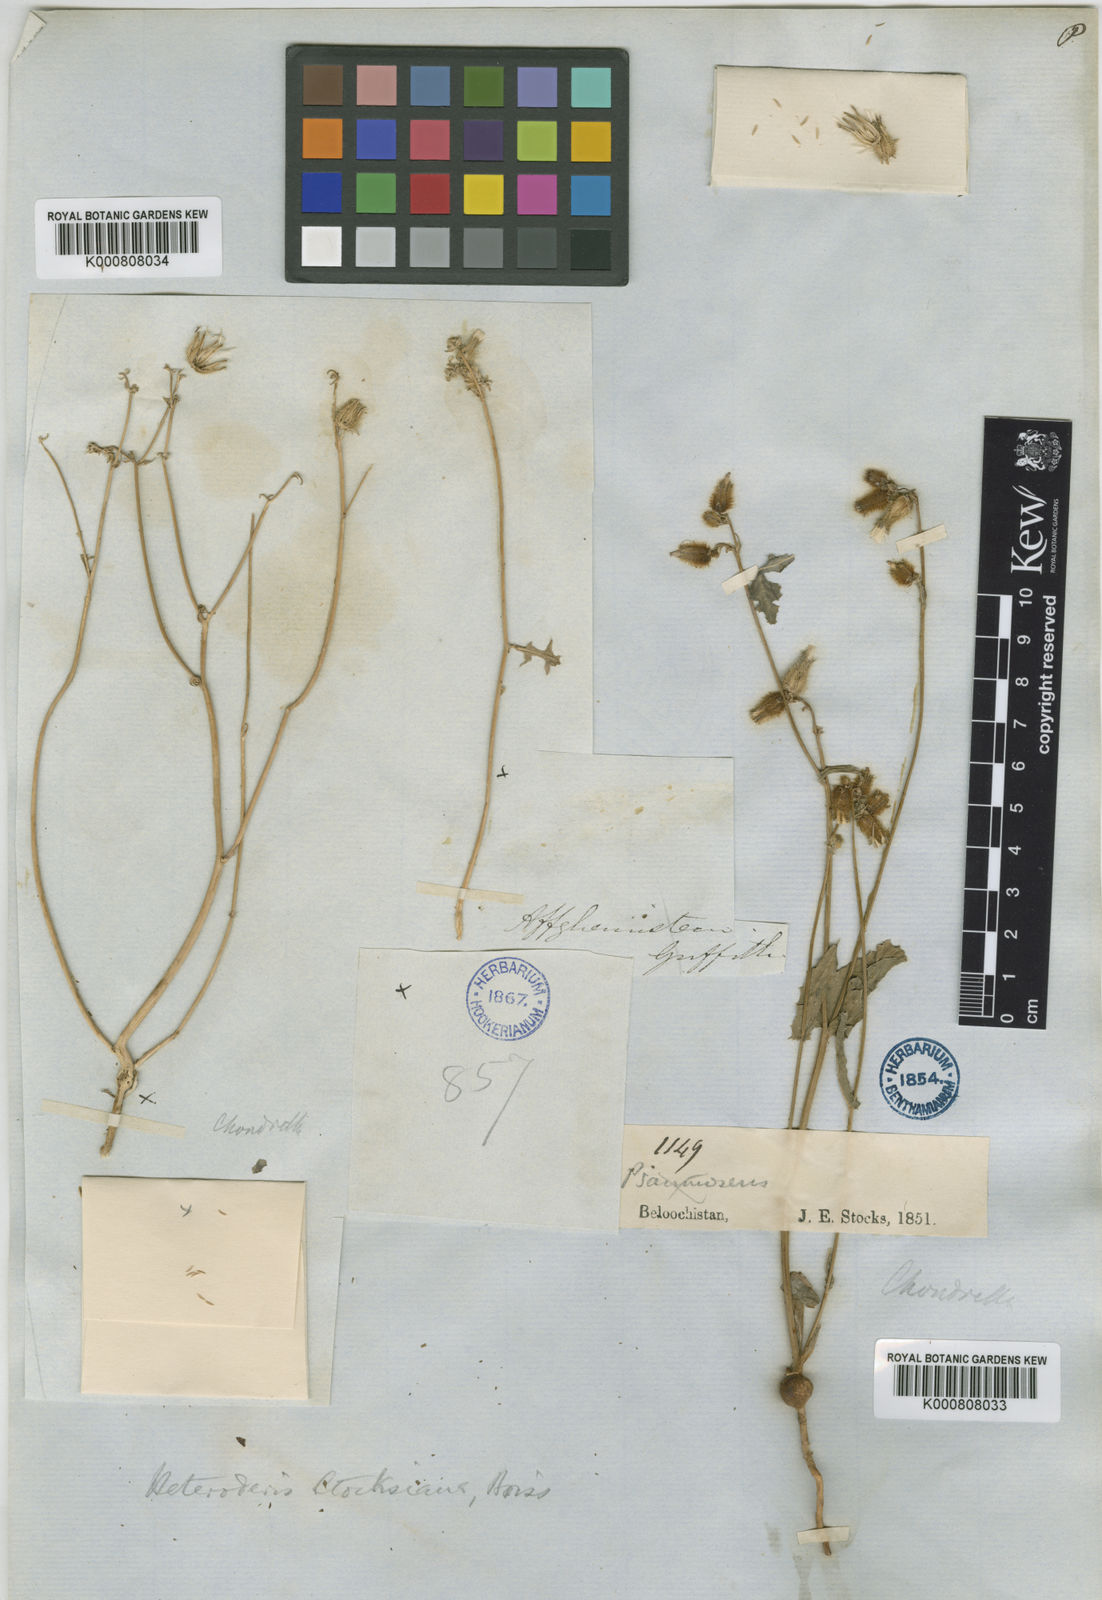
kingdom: Plantae
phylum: Tracheophyta
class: Magnoliopsida
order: Asterales
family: Asteraceae
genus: Heteroderis
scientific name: Heteroderis pusilla
